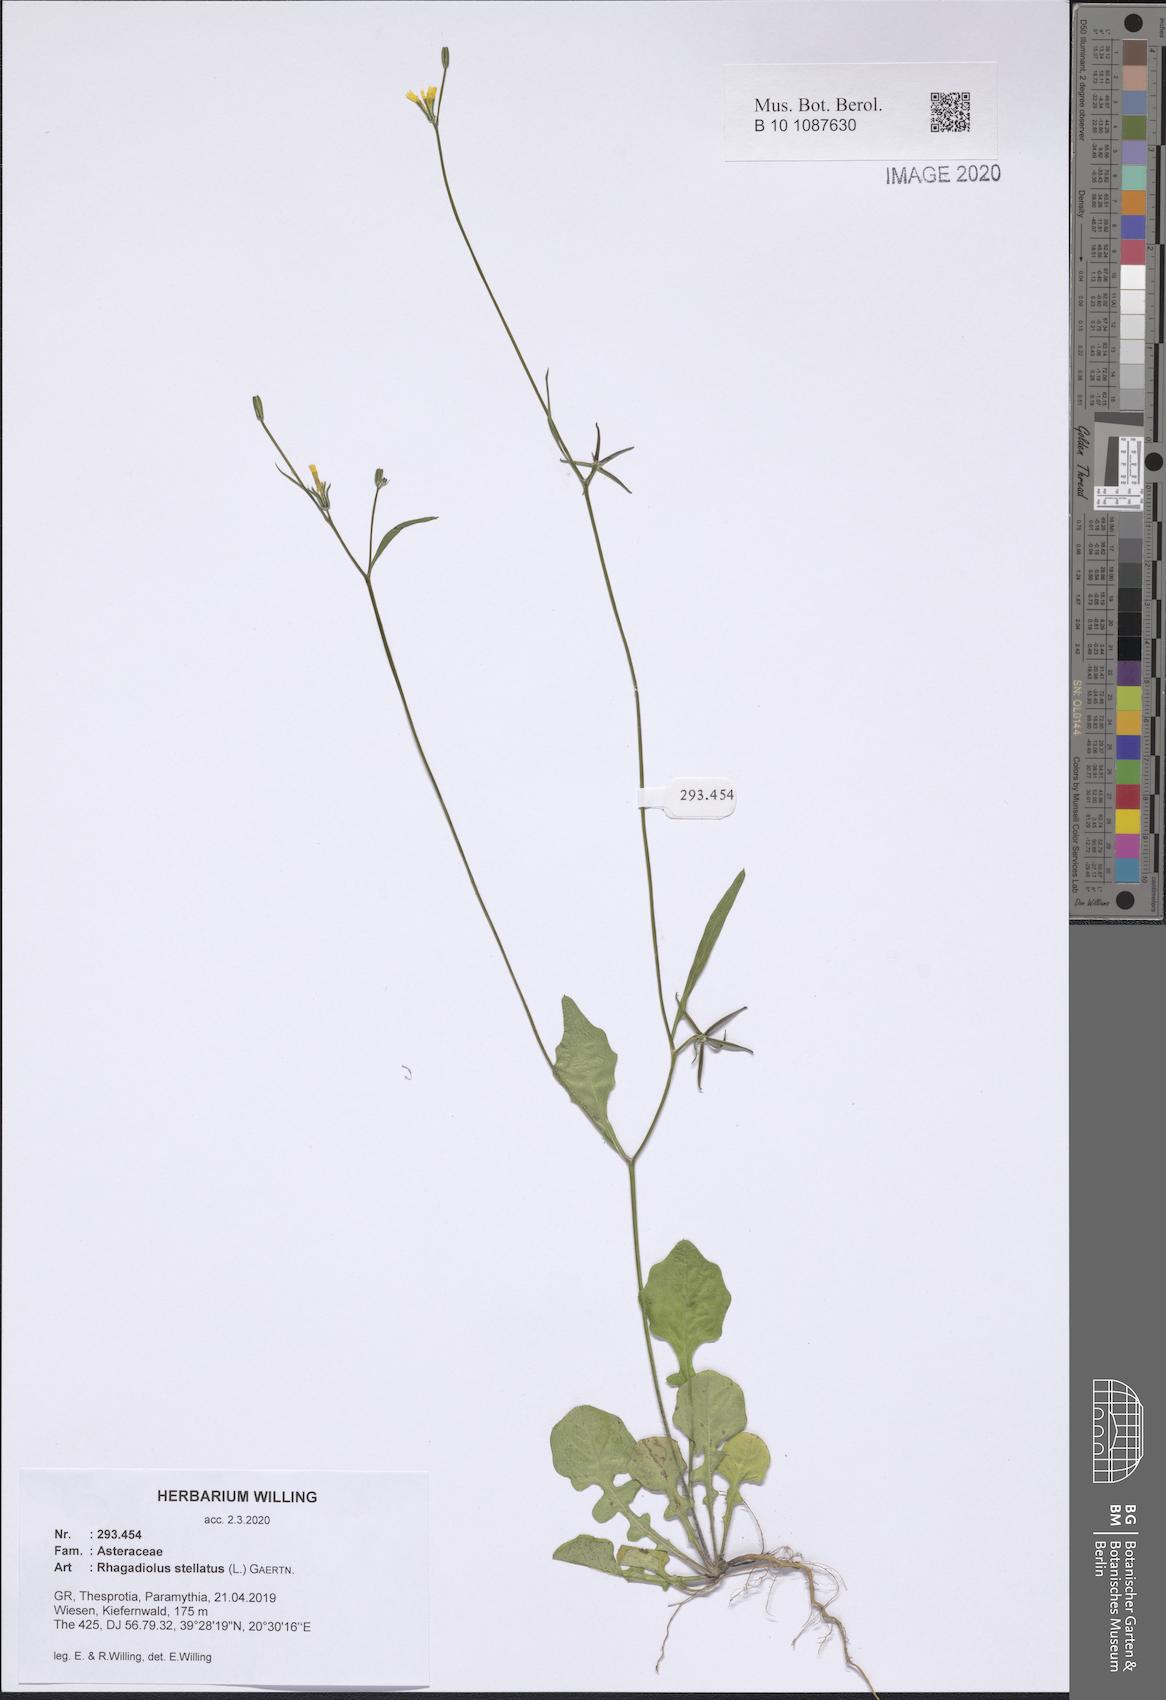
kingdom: Plantae
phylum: Tracheophyta
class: Magnoliopsida
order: Asterales
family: Asteraceae
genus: Rhagadiolus
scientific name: Rhagadiolus stellatus
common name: Star hawkbit
